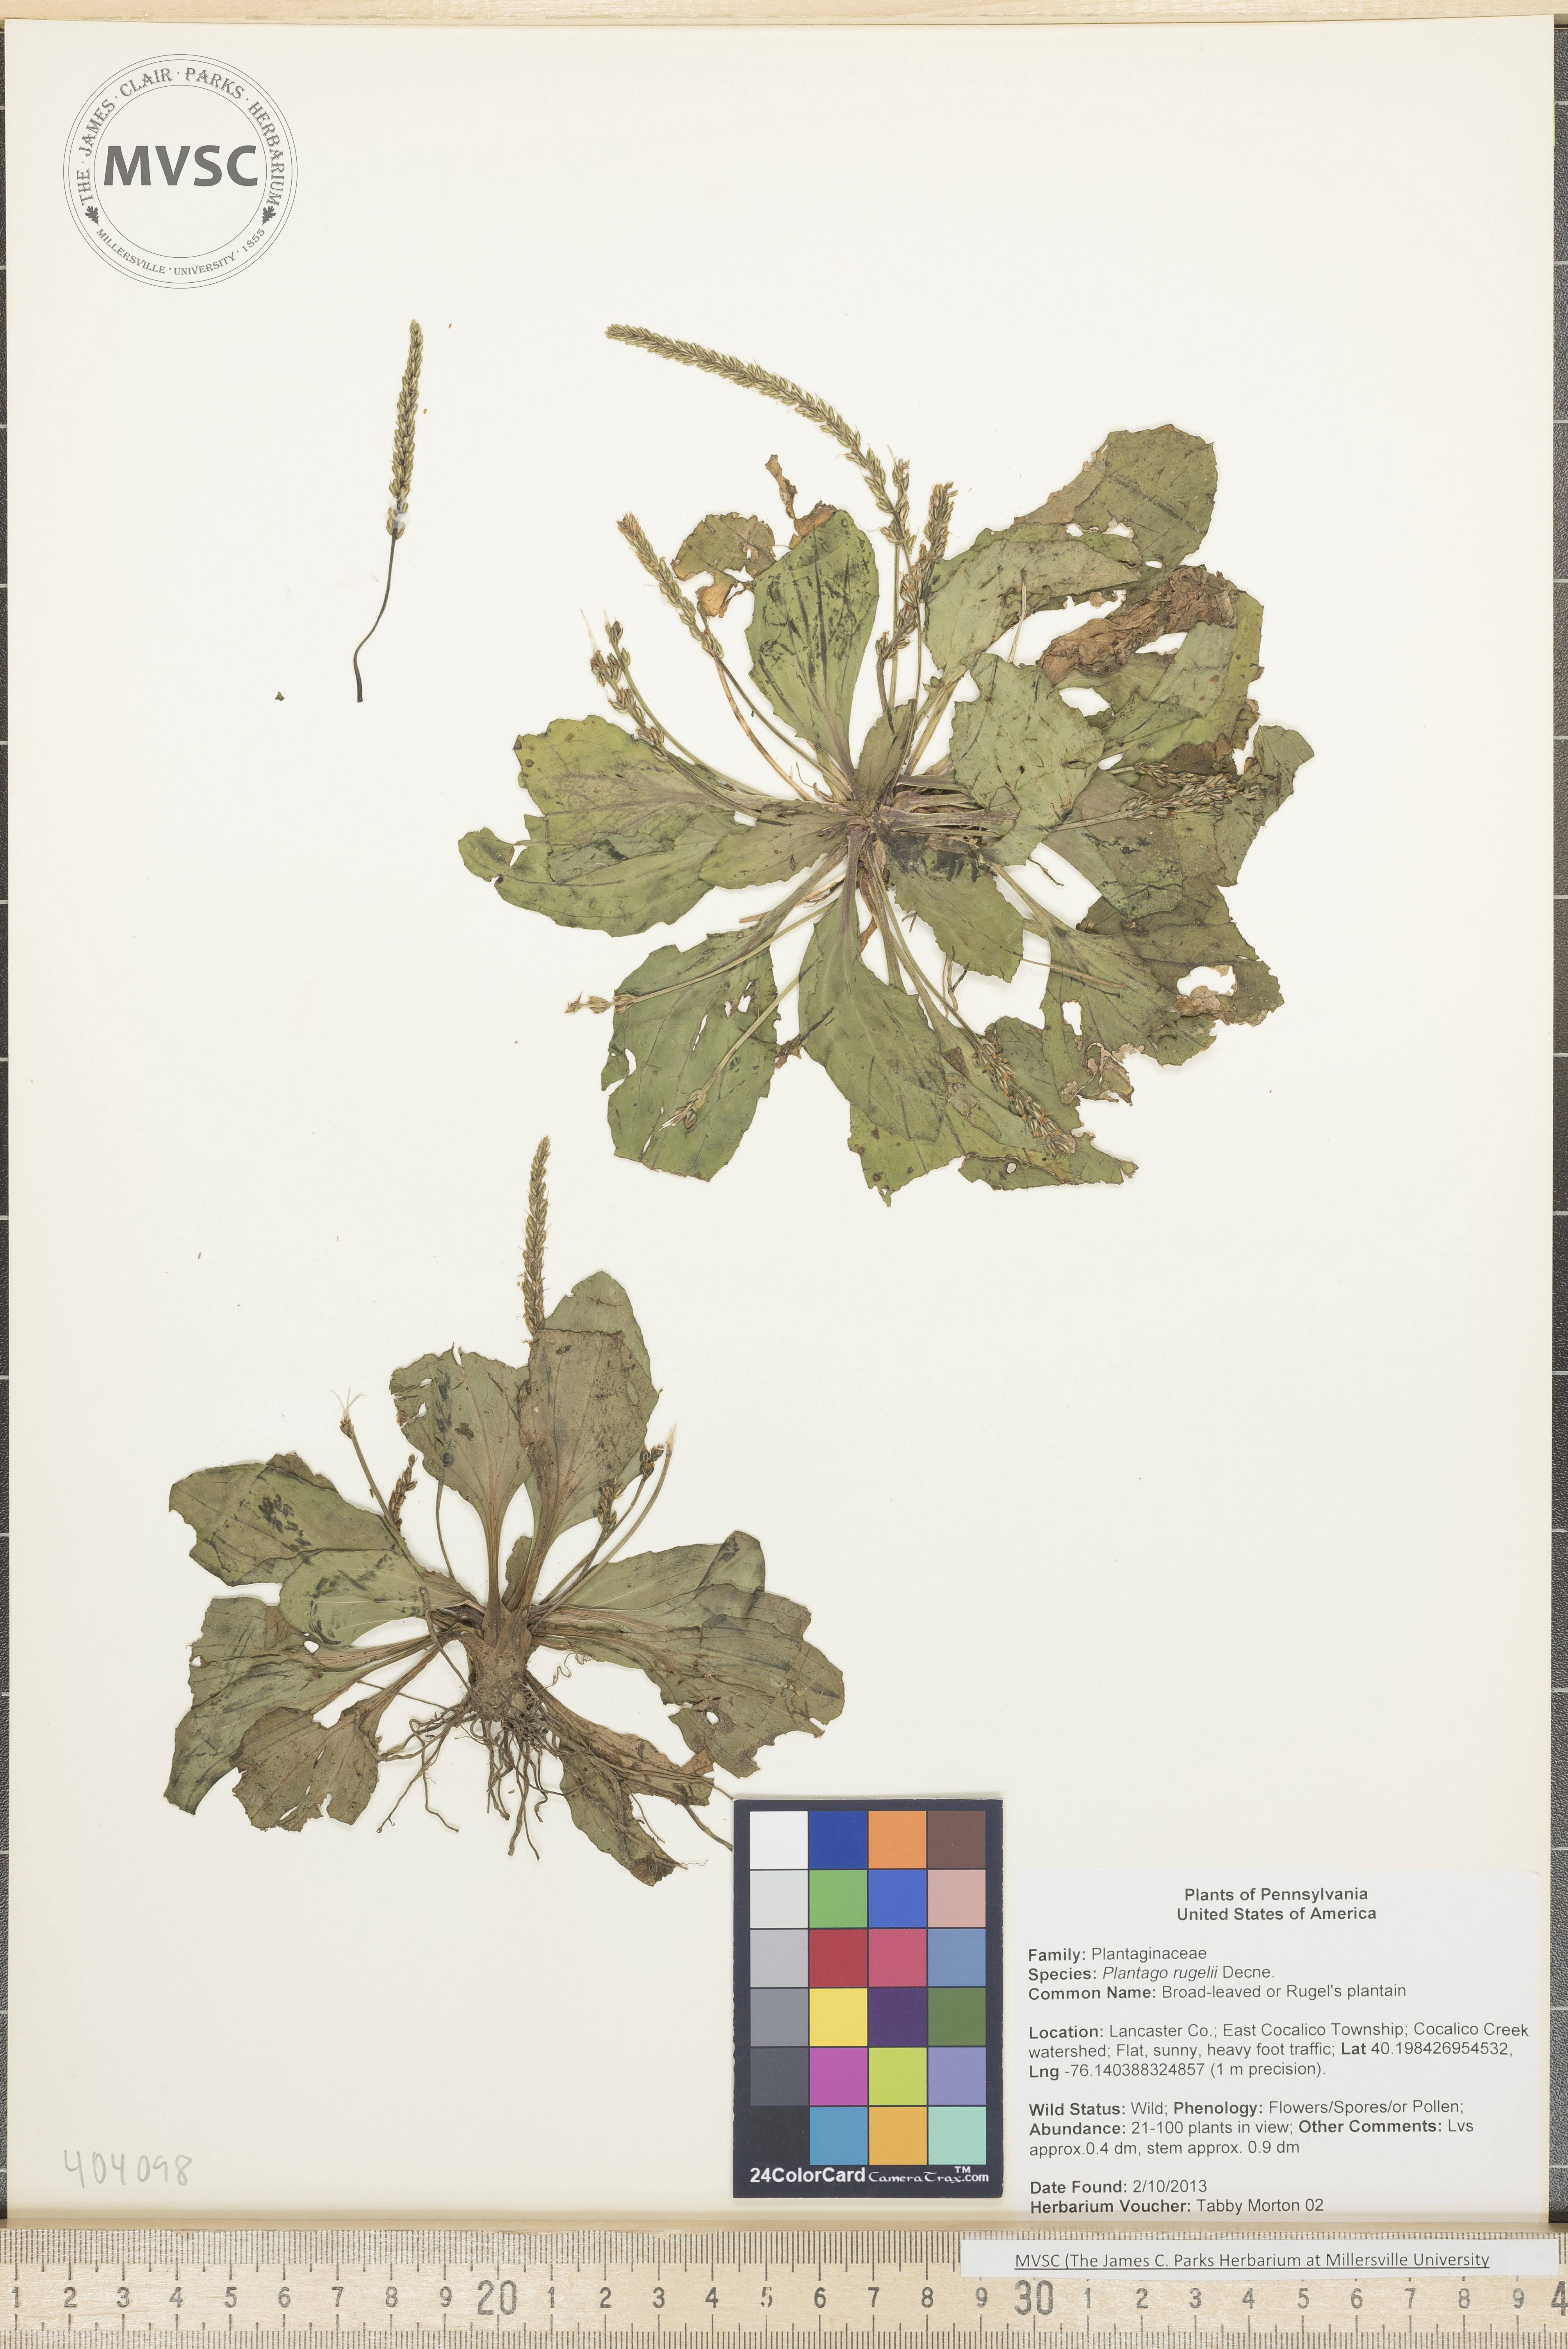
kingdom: Plantae
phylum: Tracheophyta
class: Magnoliopsida
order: Lamiales
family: Plantaginaceae
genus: Plantago
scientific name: Plantago rugelii
